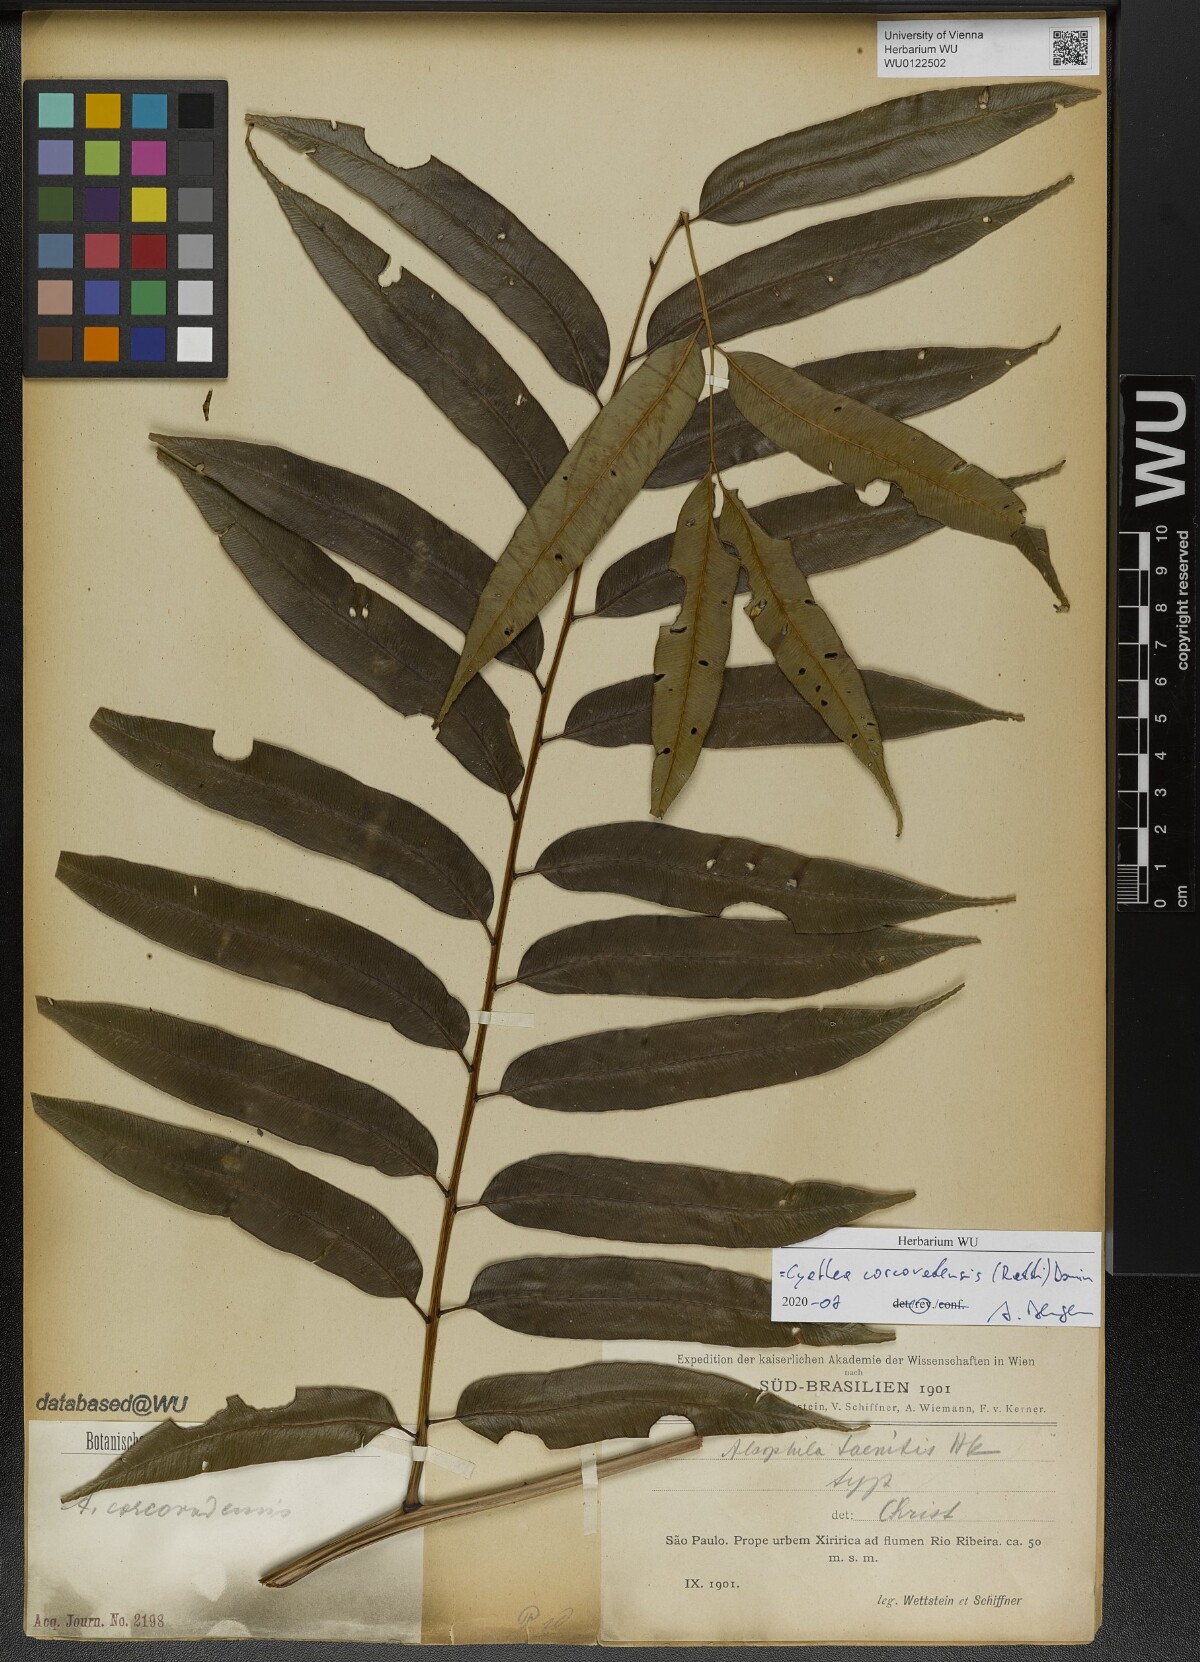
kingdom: Plantae
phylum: Tracheophyta
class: Polypodiopsida
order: Cyatheales
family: Cyatheaceae
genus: Cyathea
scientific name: Cyathea corcovadensis
